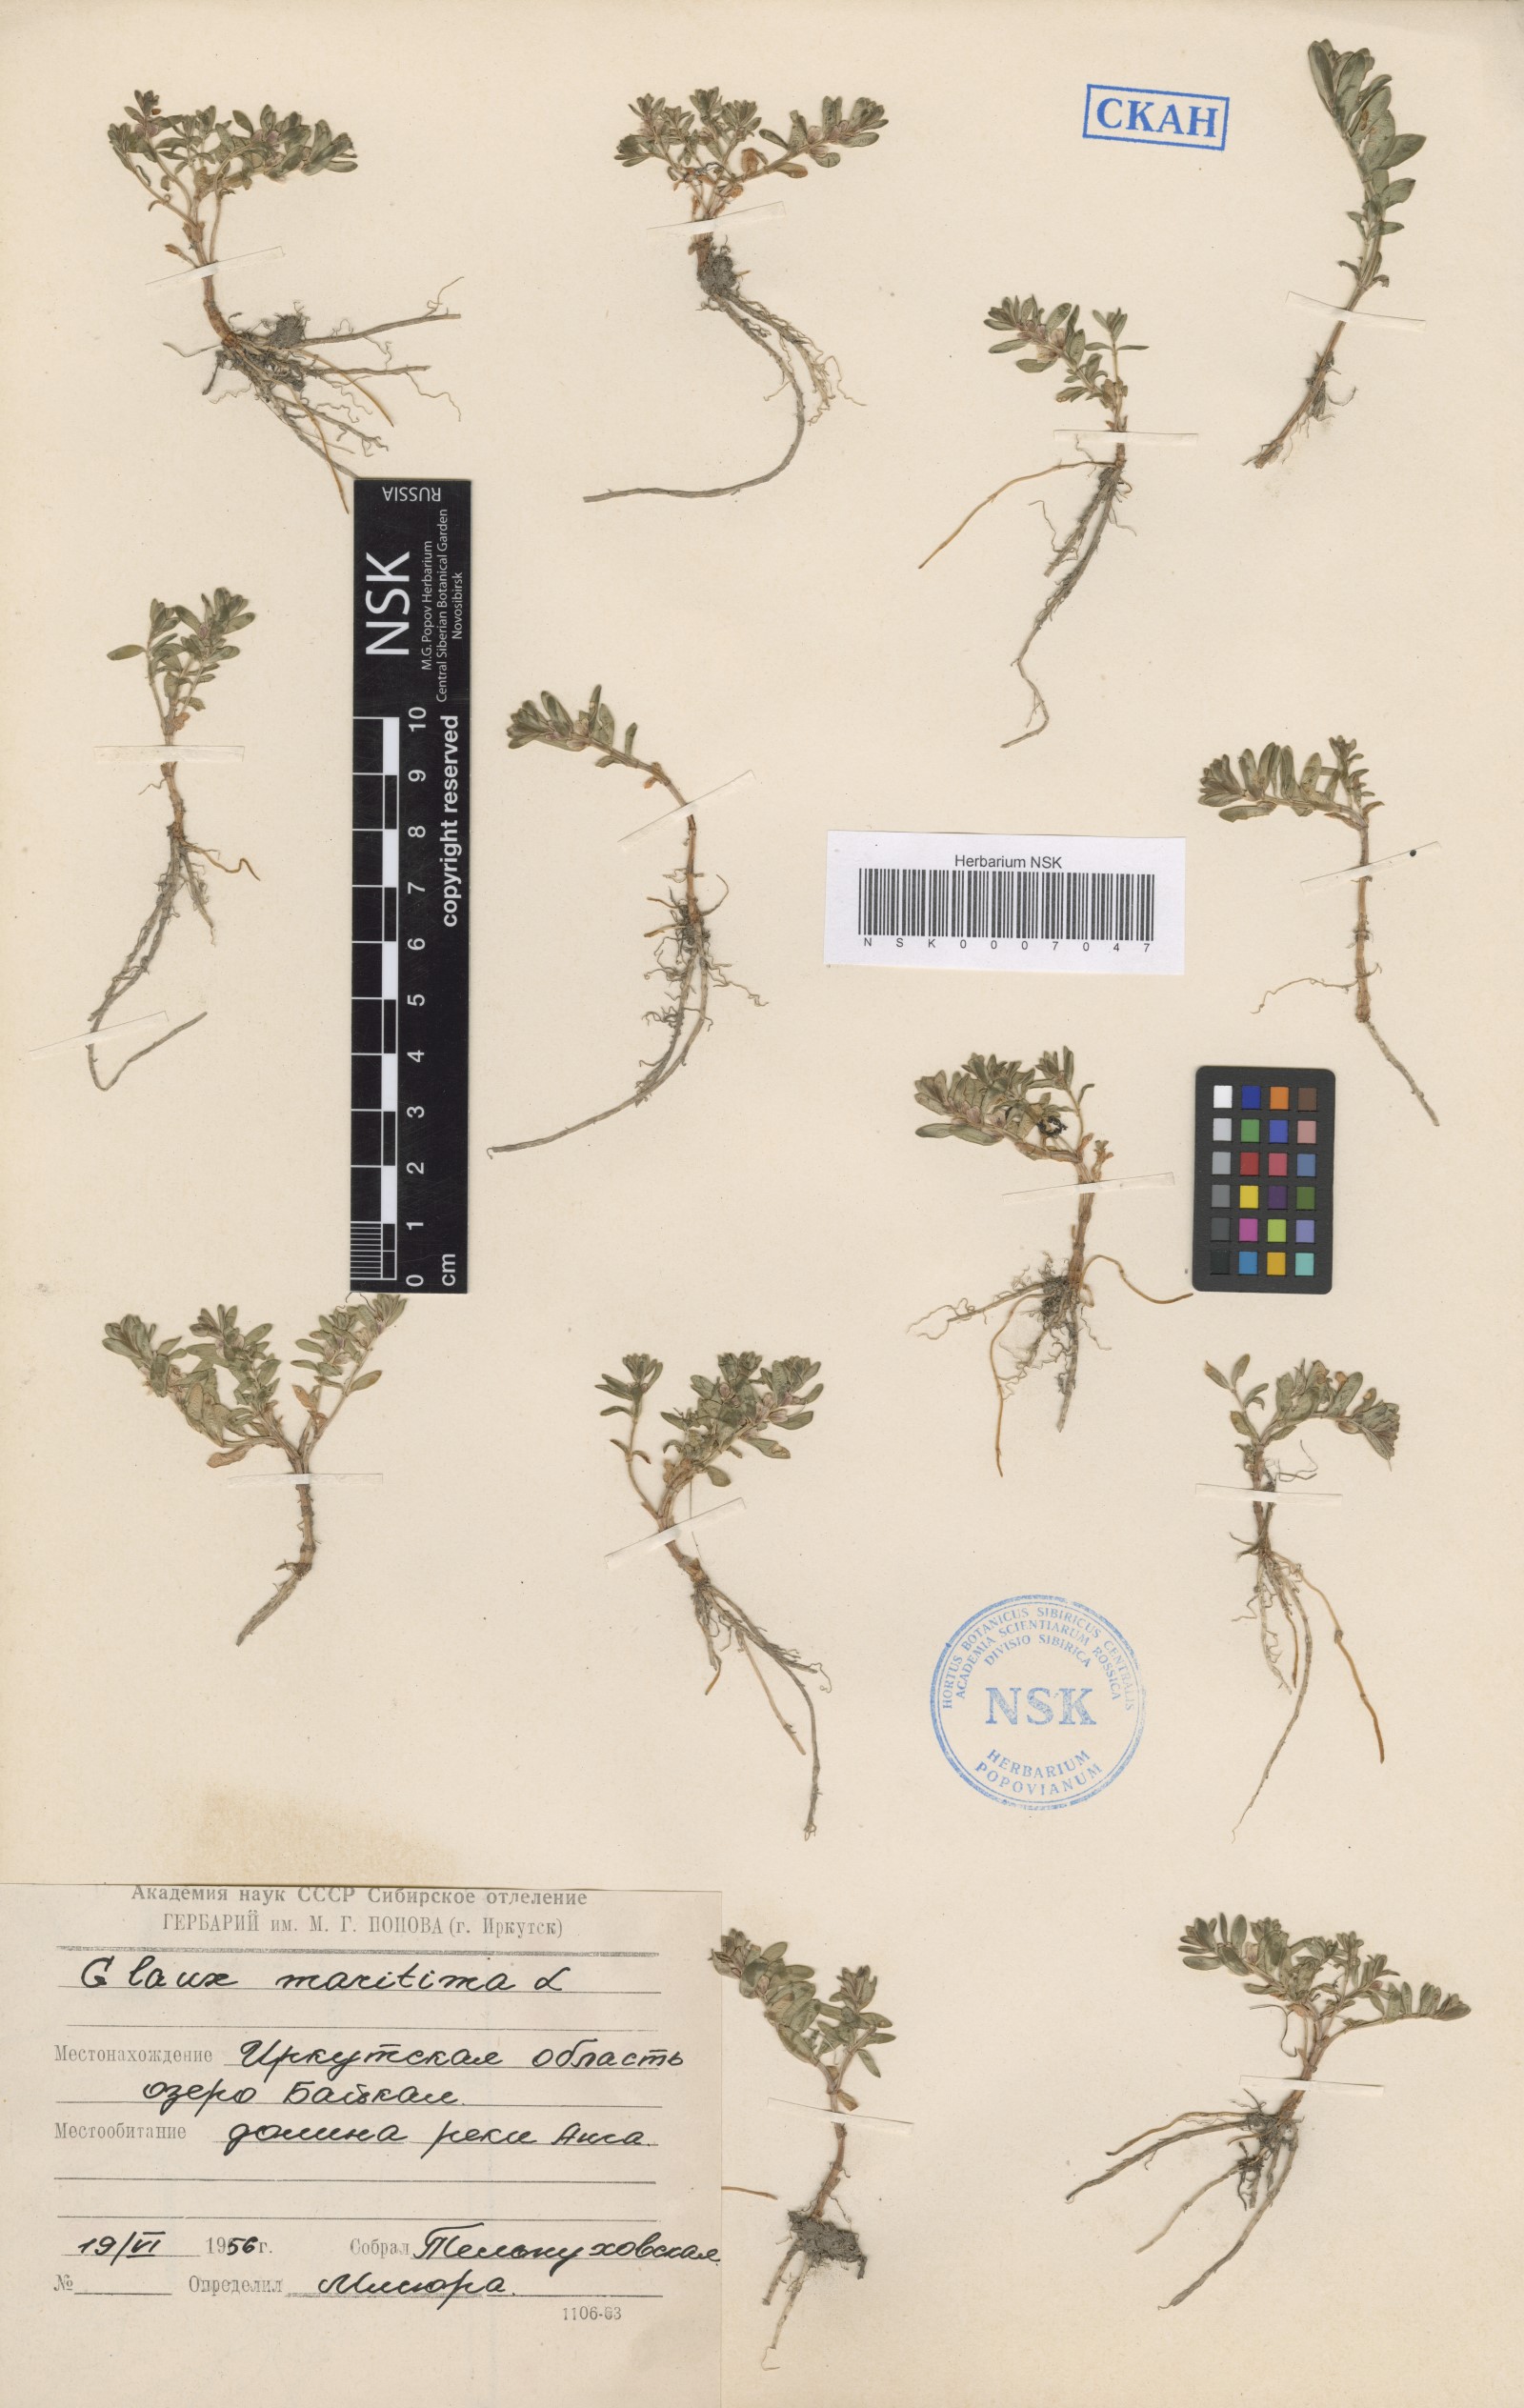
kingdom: Plantae
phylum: Tracheophyta
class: Magnoliopsida
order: Ericales
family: Primulaceae
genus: Lysimachia
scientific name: Lysimachia maritima
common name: Sea milkwort
